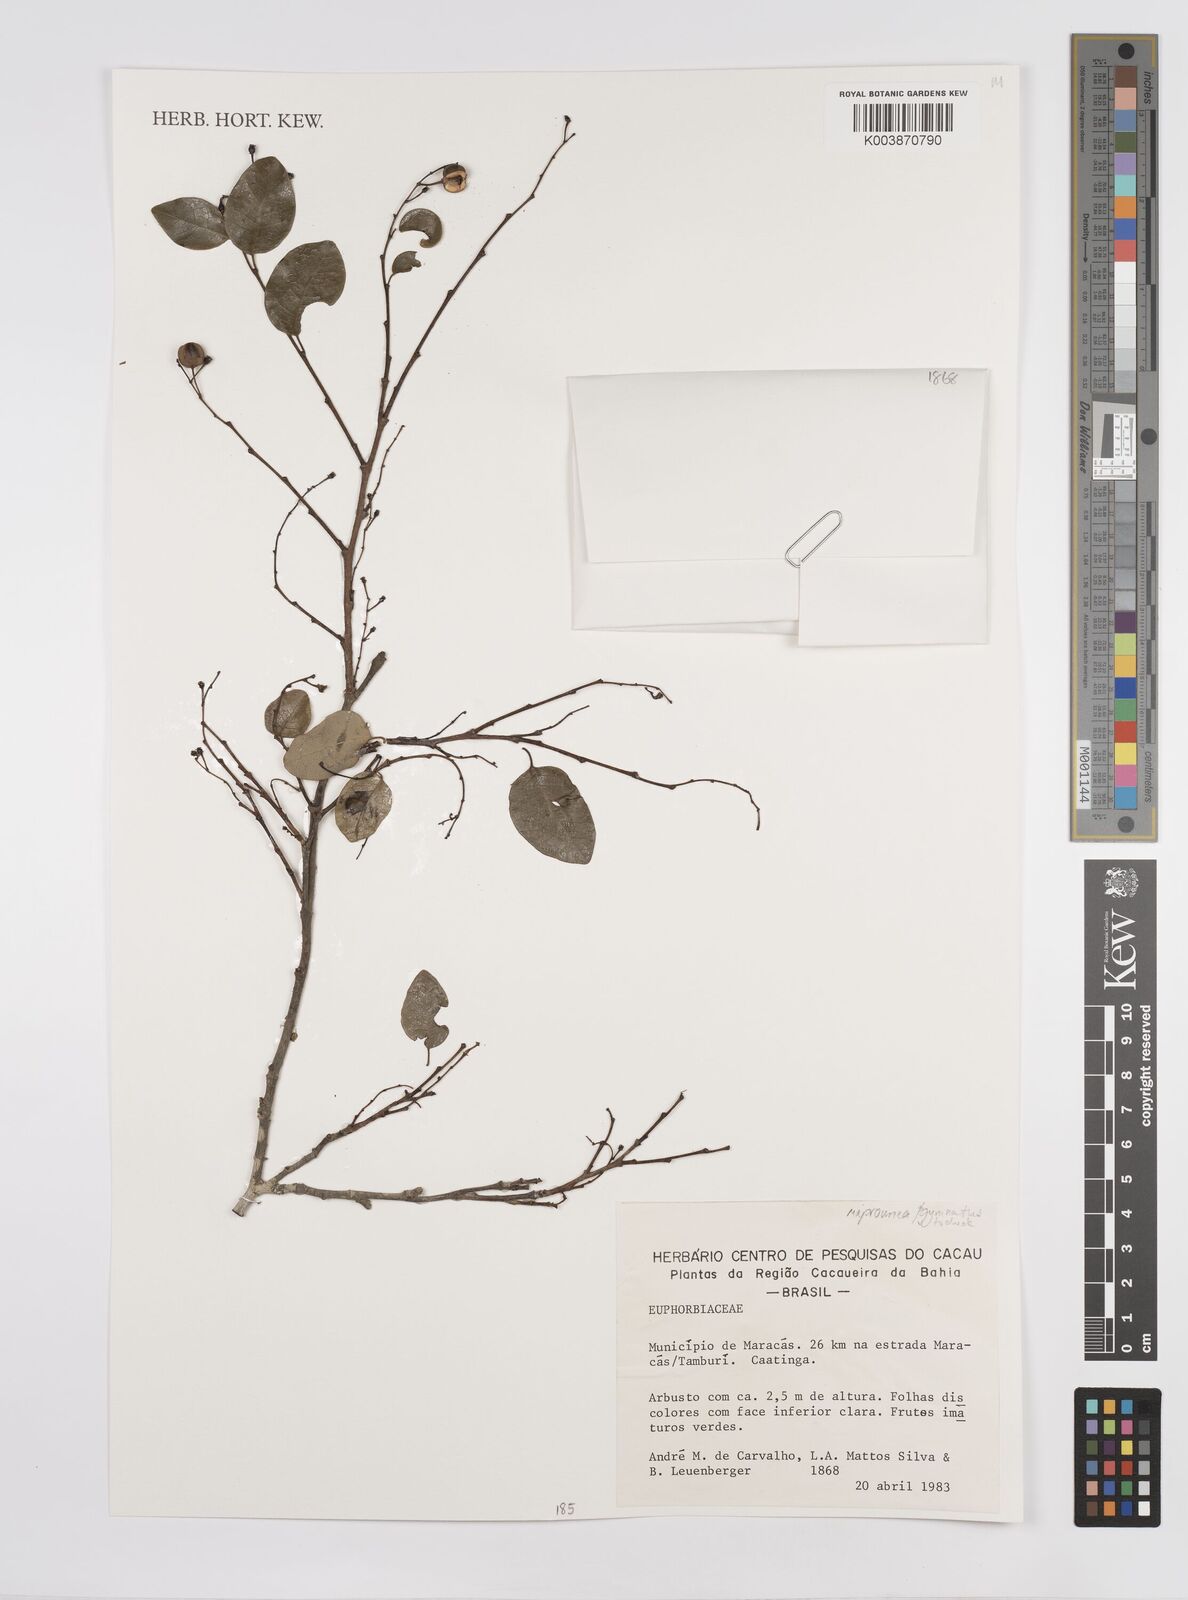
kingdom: Plantae
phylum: Tracheophyta
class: Magnoliopsida
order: Malpighiales
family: Euphorbiaceae
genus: Maprounea
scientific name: Maprounea guianensis
